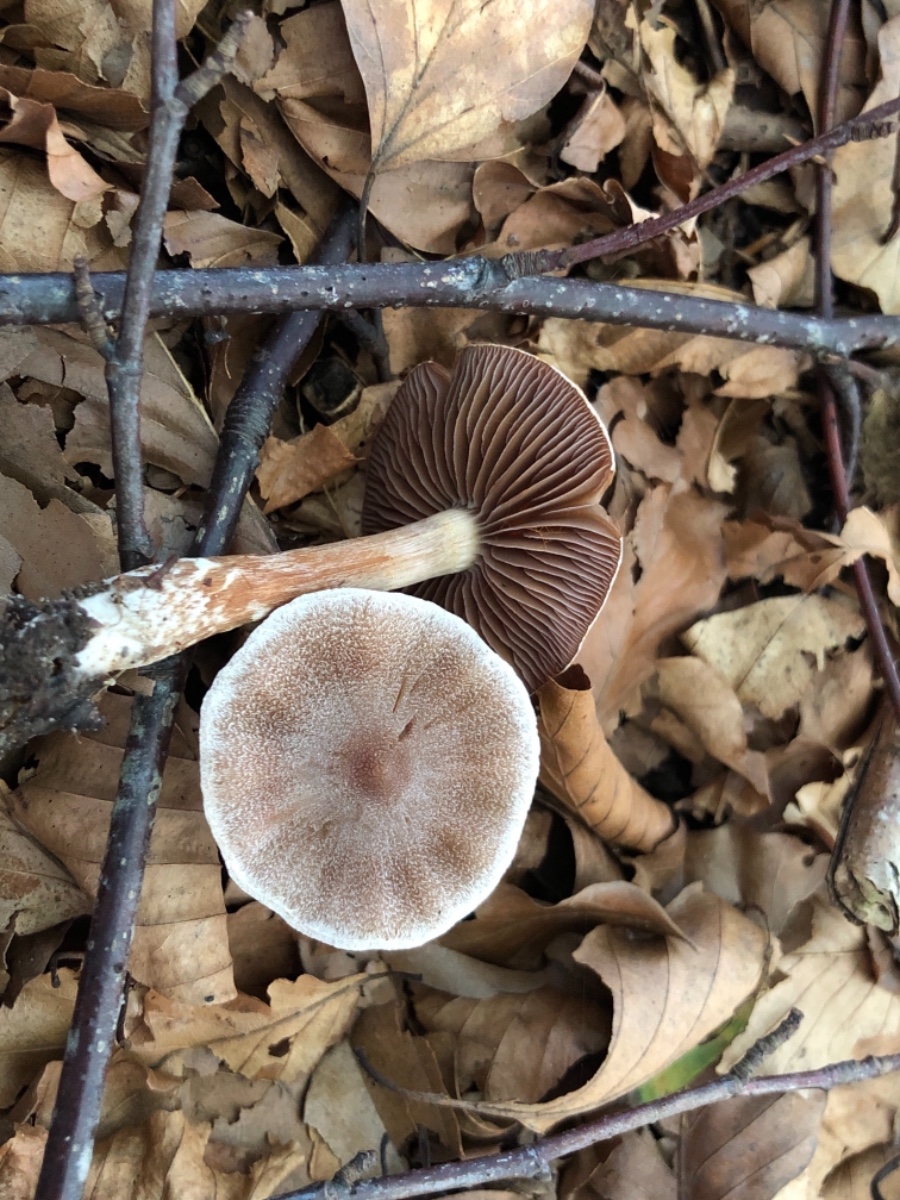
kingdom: Fungi
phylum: Basidiomycota
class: Agaricomycetes
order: Agaricales
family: Cortinariaceae
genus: Cortinarius
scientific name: Cortinarius geraniolens
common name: geranium-slørhat
